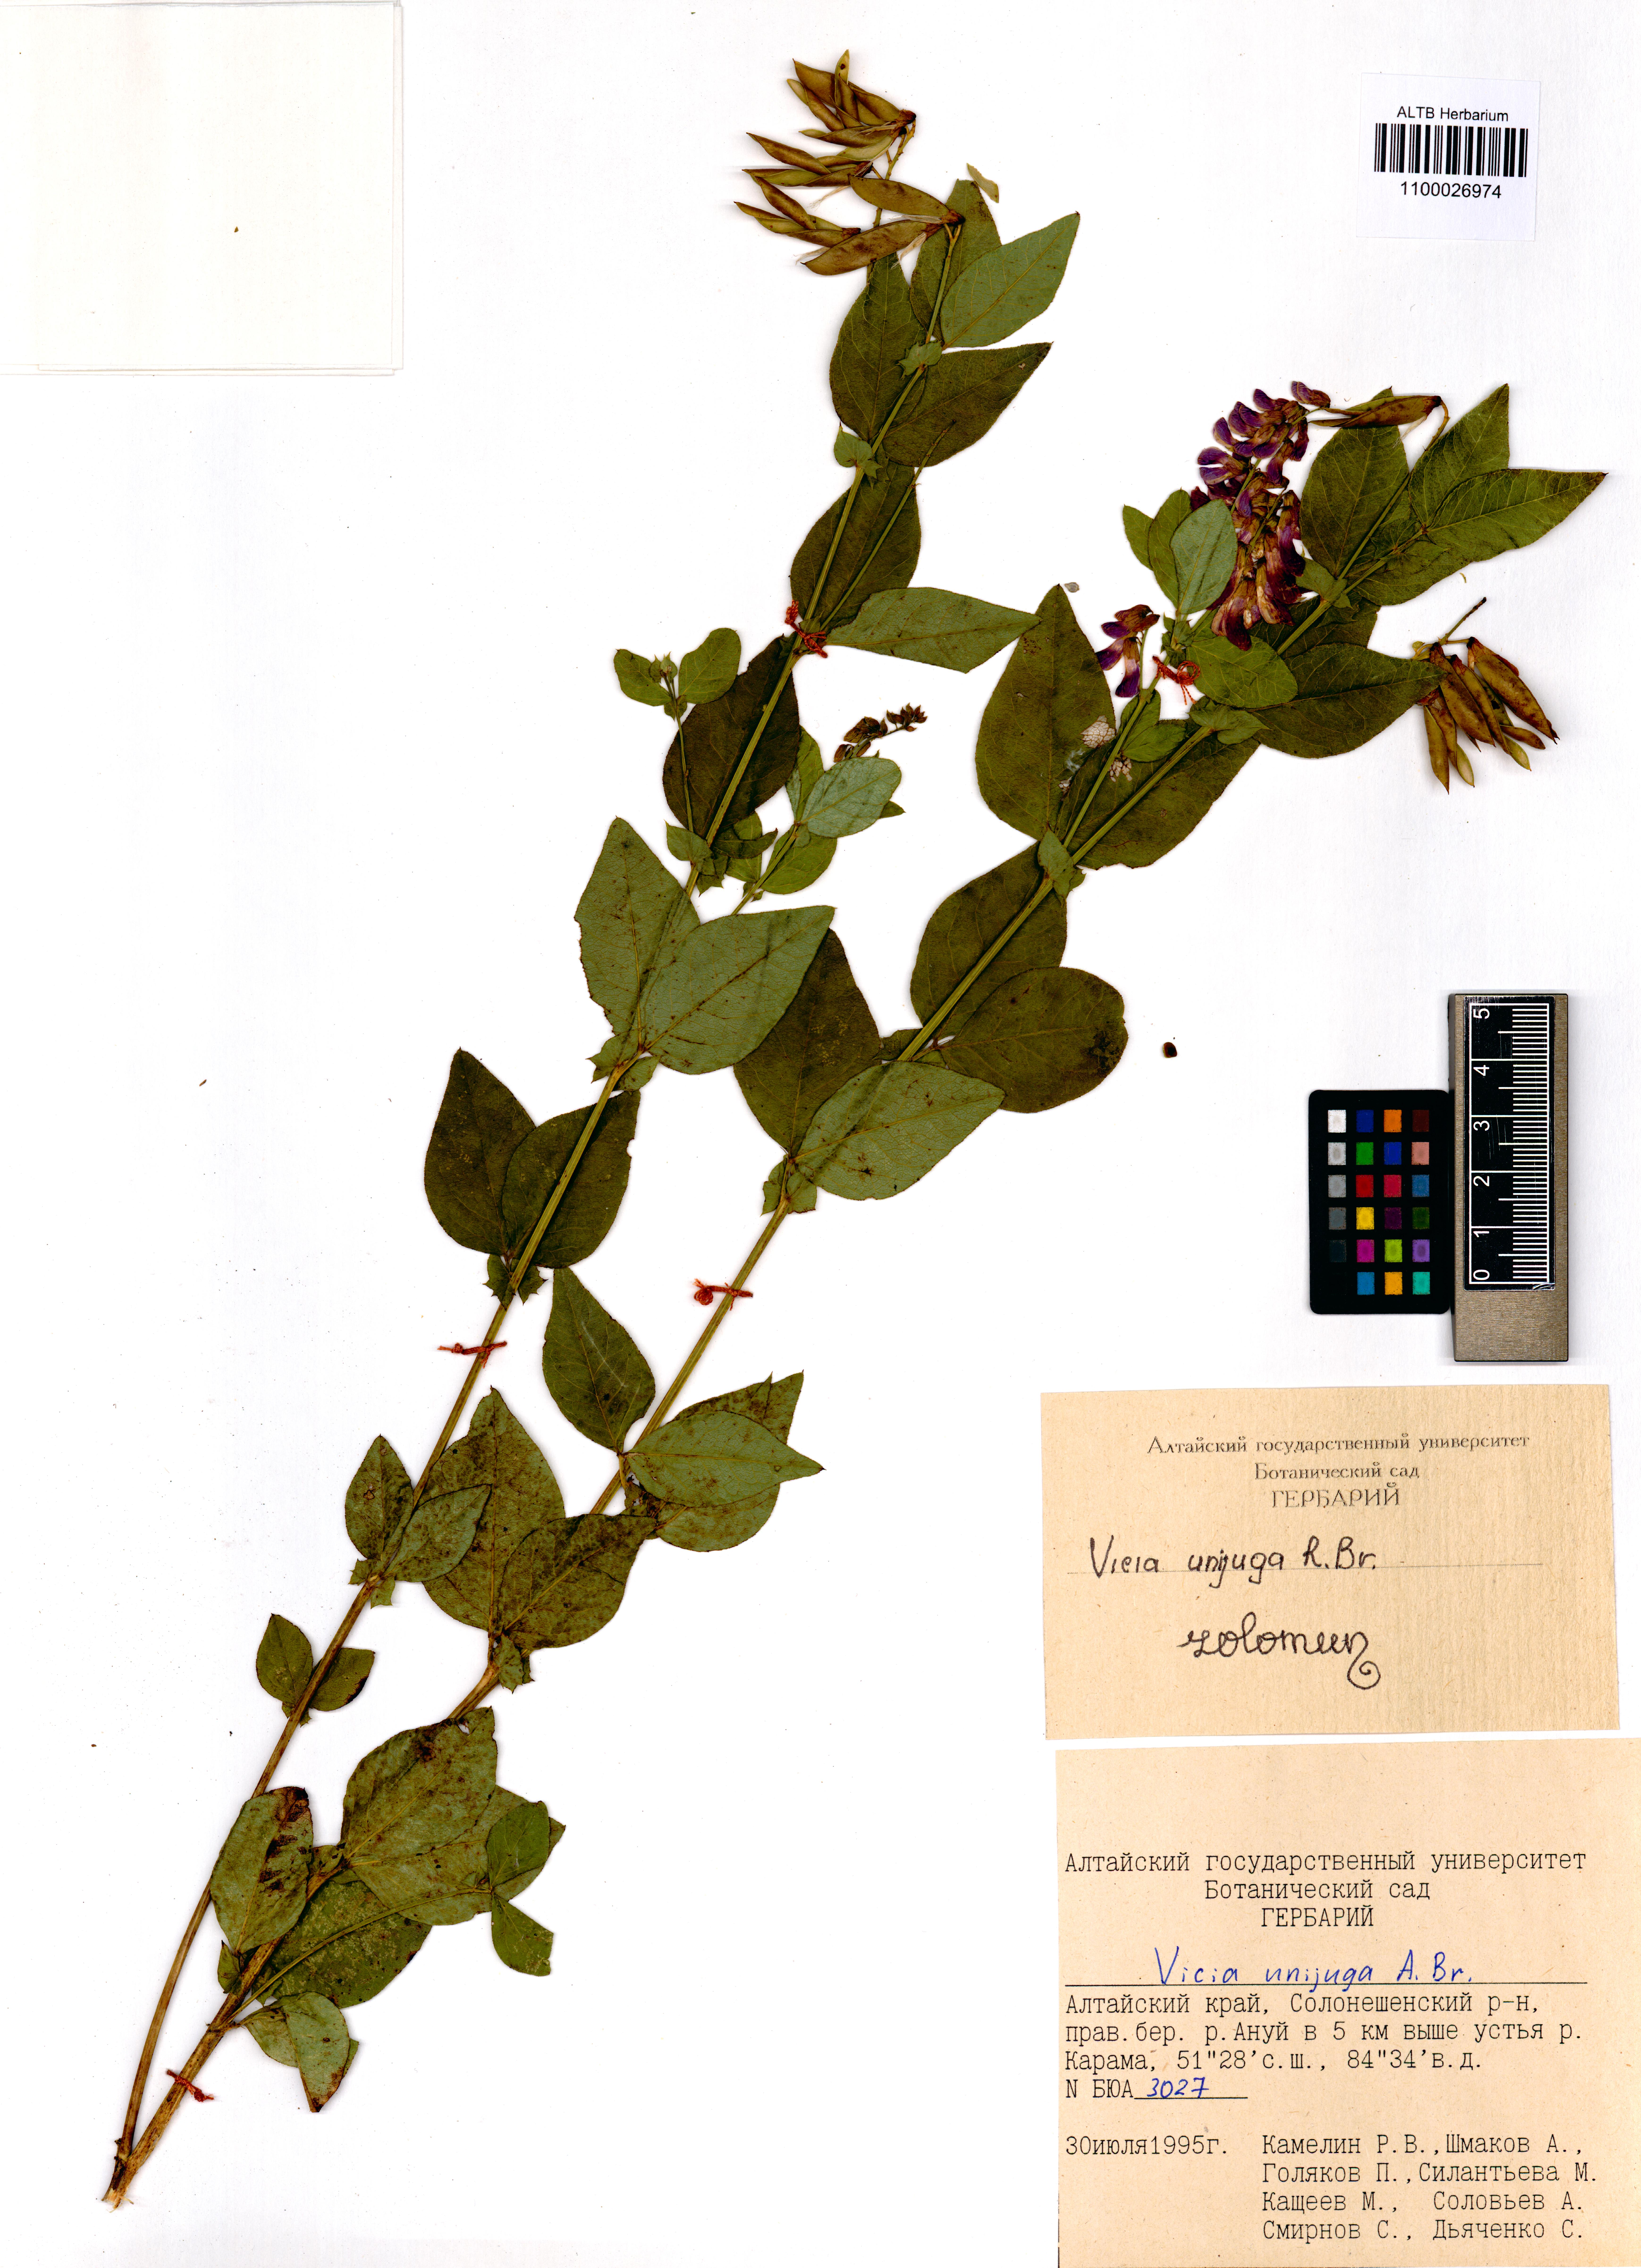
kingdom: Plantae
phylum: Tracheophyta
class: Magnoliopsida
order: Fabales
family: Fabaceae
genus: Vicia
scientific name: Vicia unijuga
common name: Two-leaf vetch
